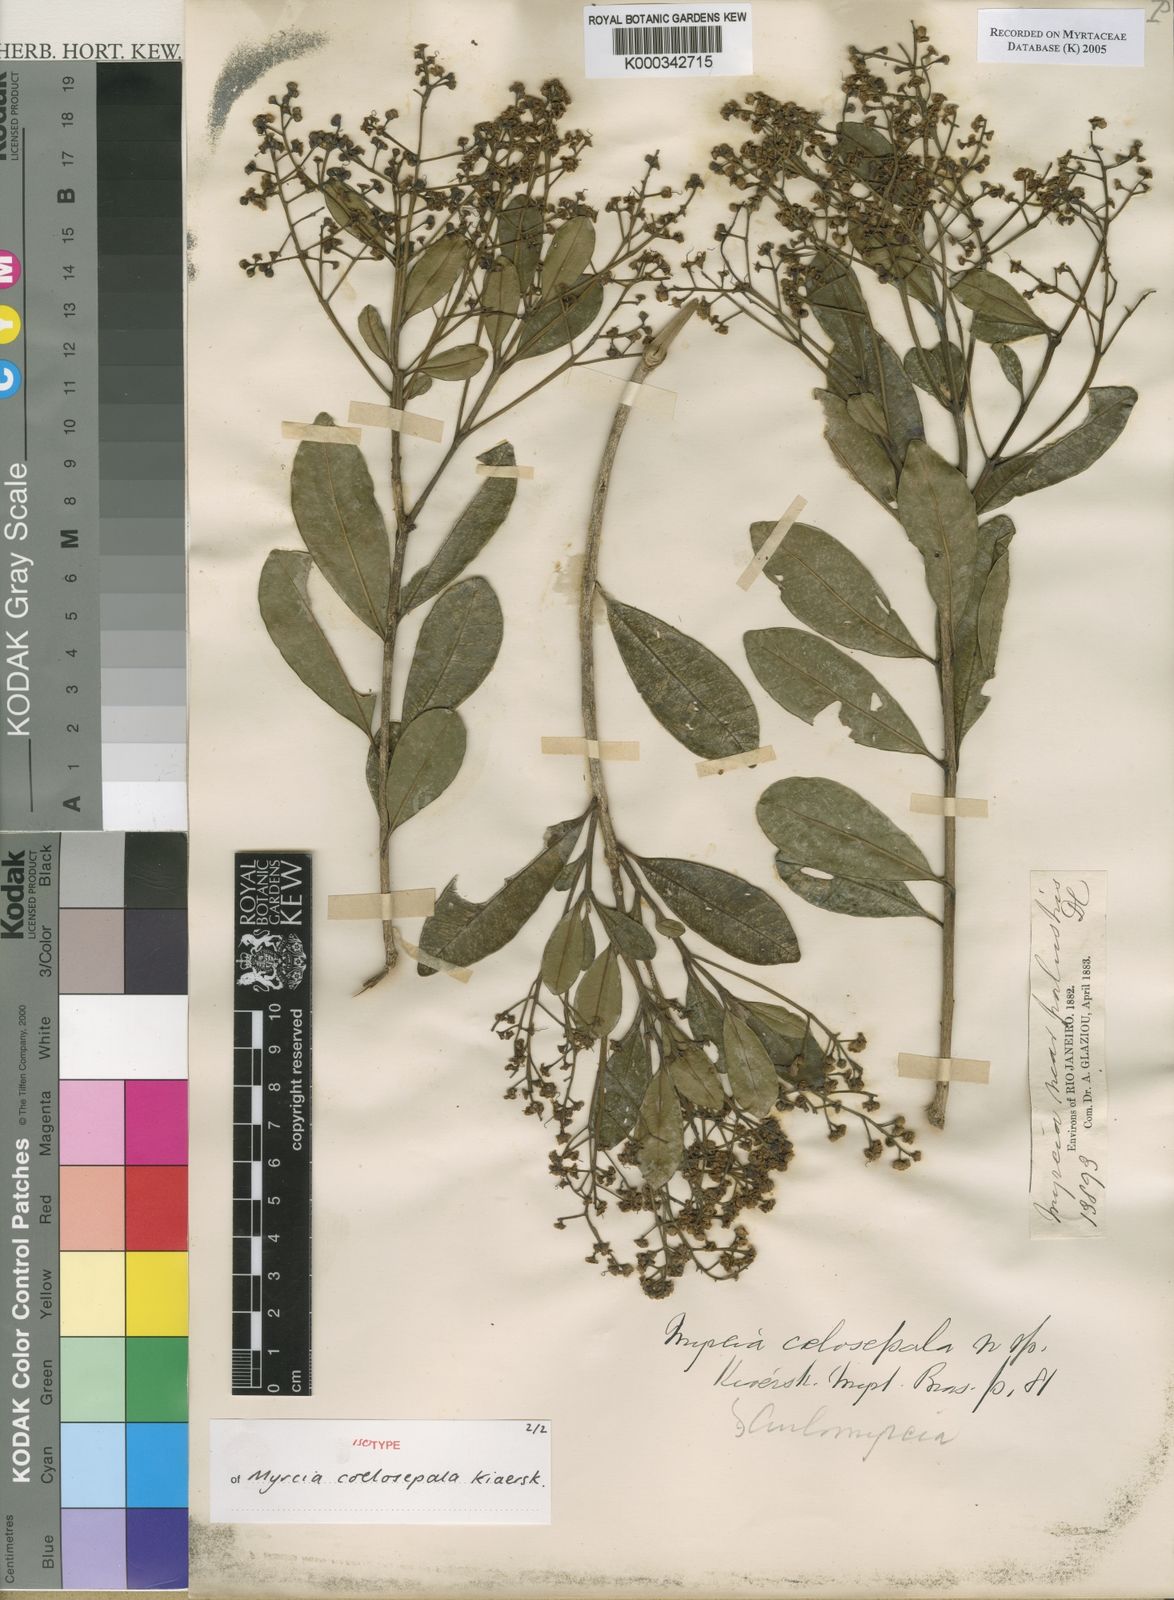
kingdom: Plantae
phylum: Tracheophyta
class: Magnoliopsida
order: Myrtales
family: Myrtaceae
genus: Myrcia
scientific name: Myrcia coelosepala
